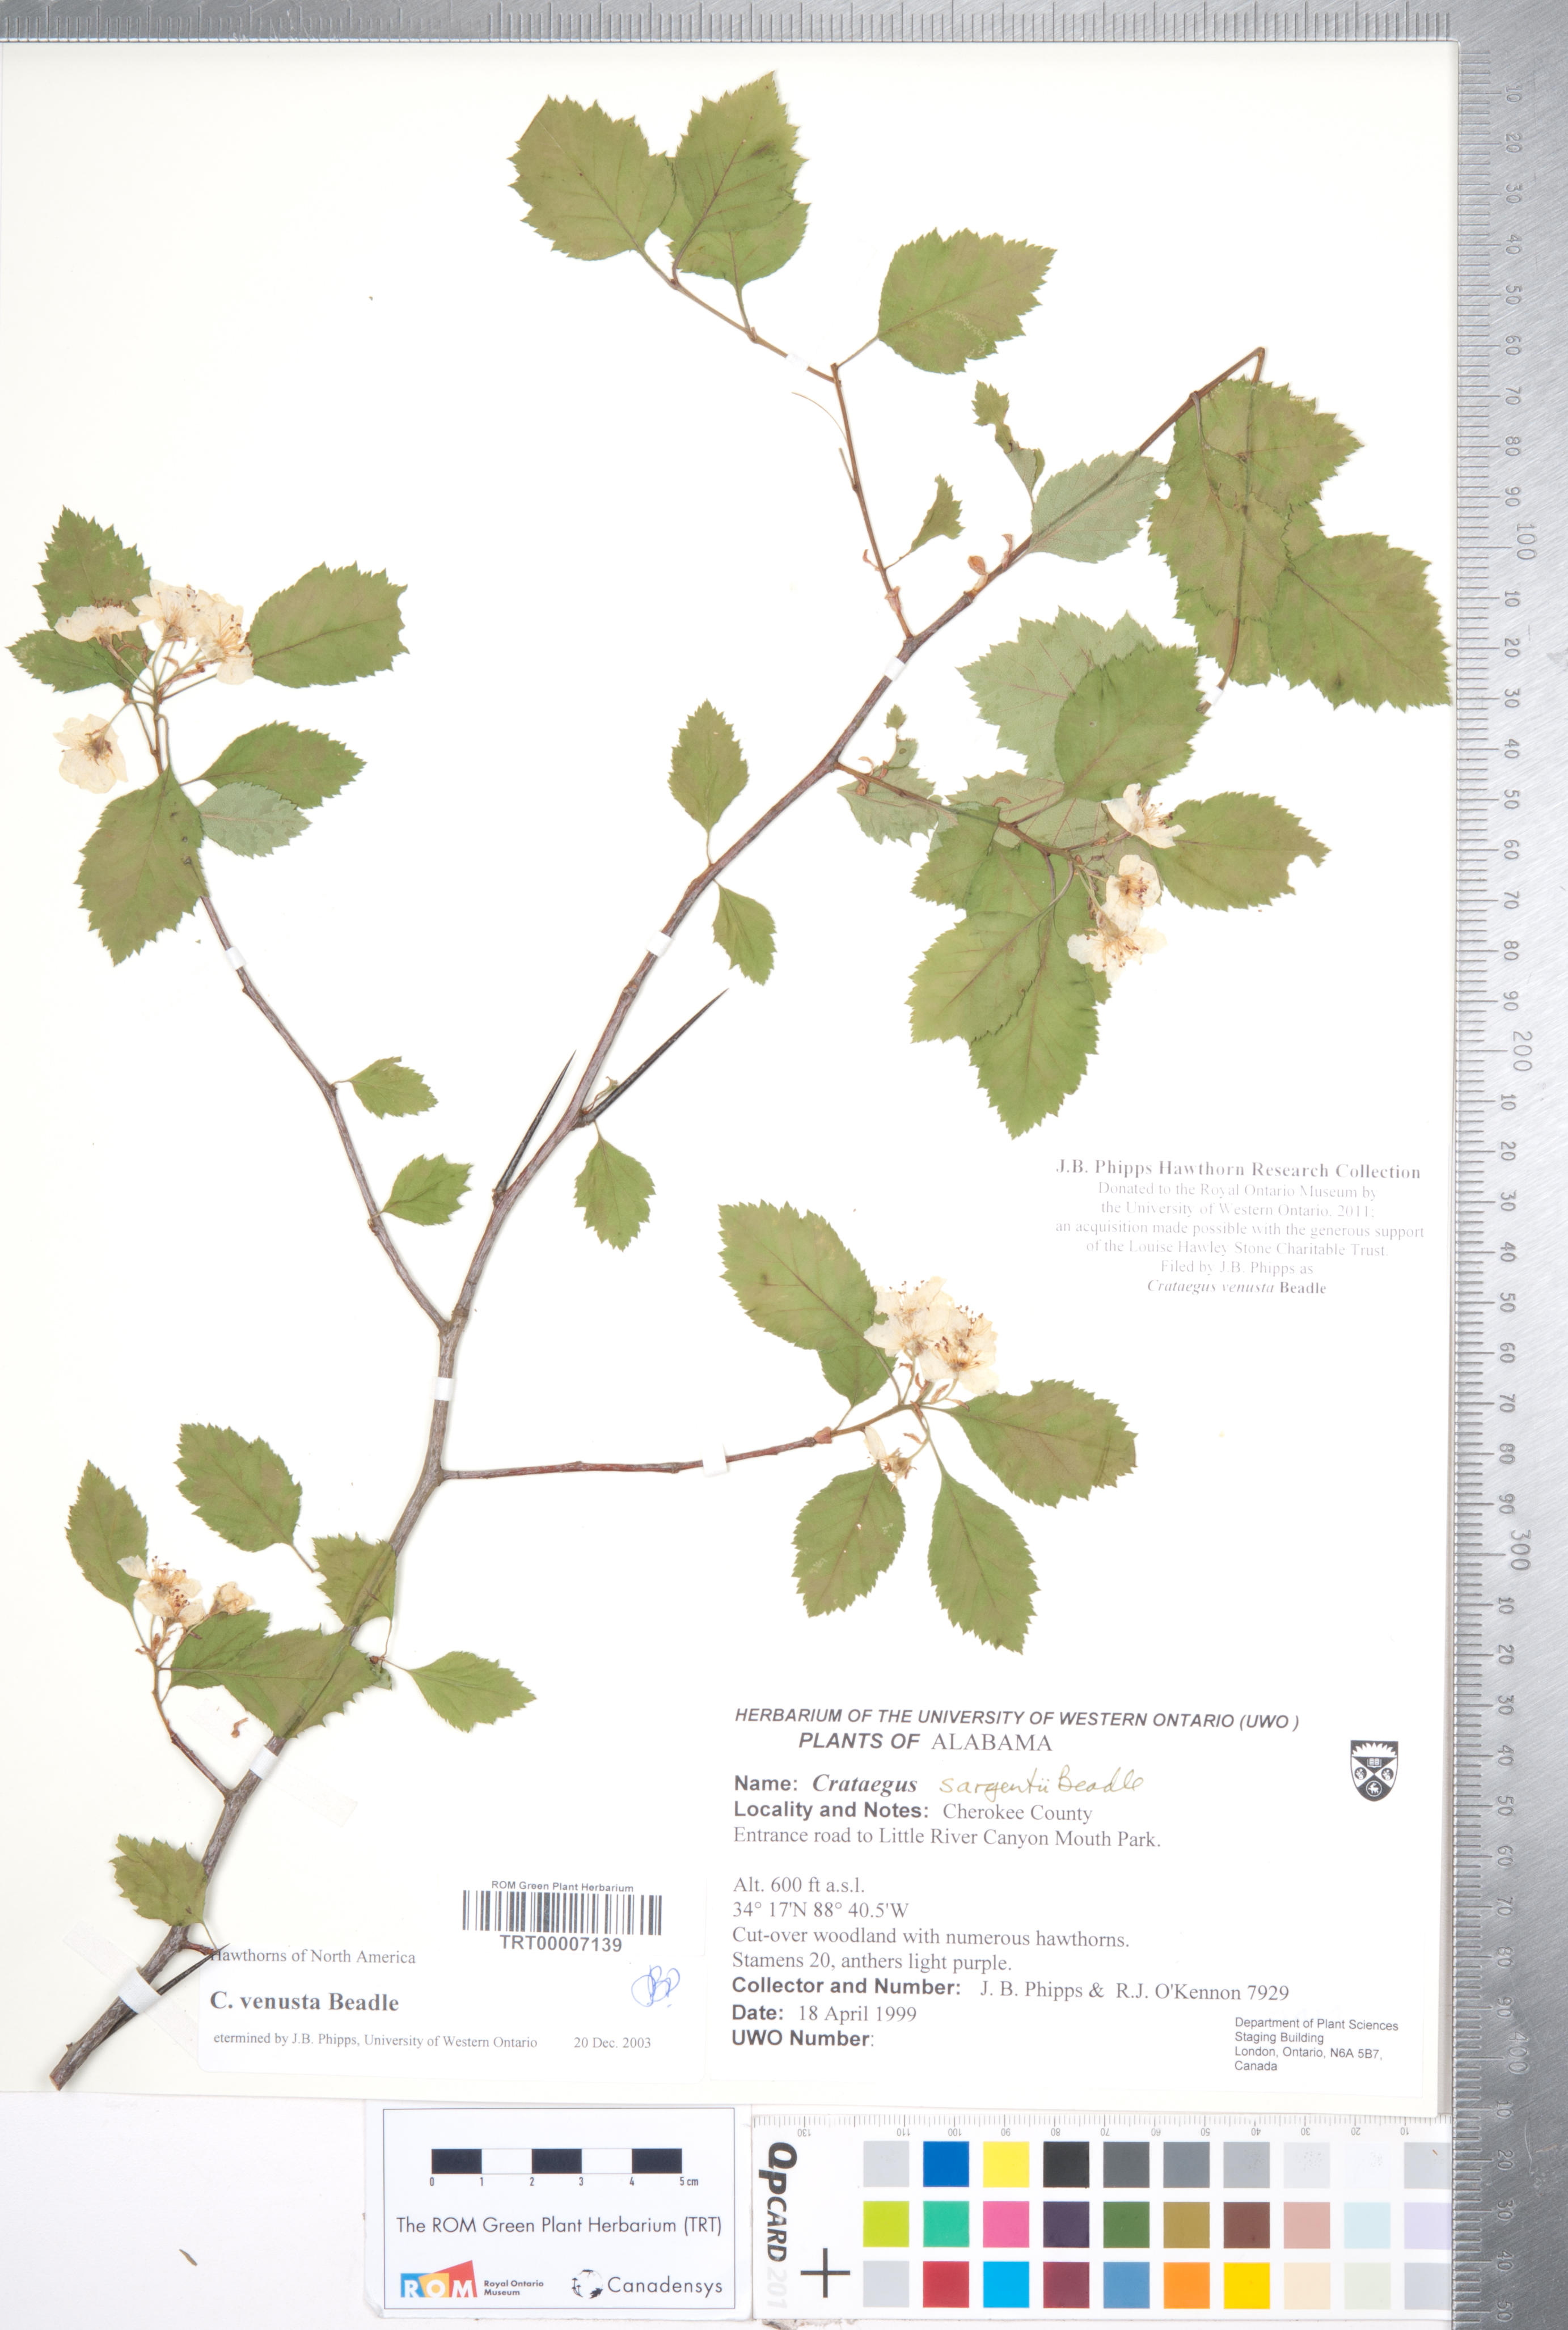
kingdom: Plantae
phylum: Tracheophyta
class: Magnoliopsida
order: Rosales
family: Rosaceae
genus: Crataegus
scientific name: Crataegus venusta
